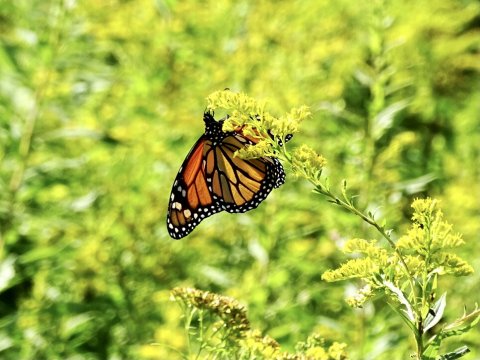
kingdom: Animalia
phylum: Arthropoda
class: Insecta
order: Lepidoptera
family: Nymphalidae
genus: Danaus
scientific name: Danaus plexippus
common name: Monarch
